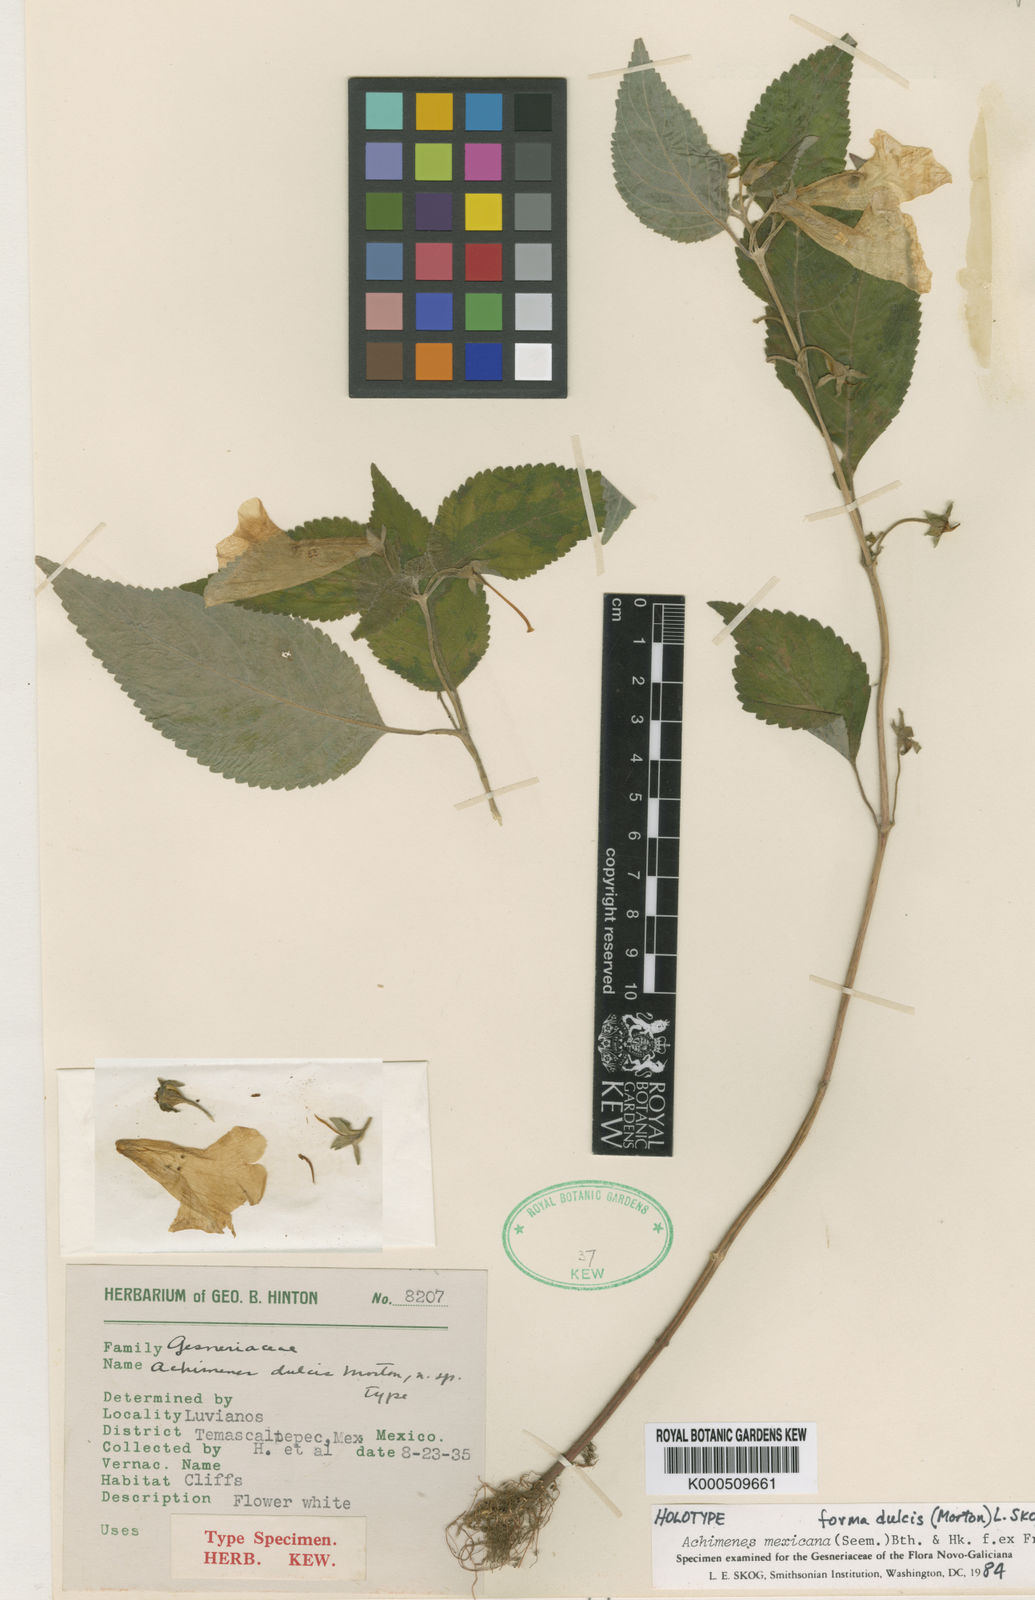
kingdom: Plantae
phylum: Tracheophyta
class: Magnoliopsida
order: Lamiales
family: Gesneriaceae
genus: Achimenes
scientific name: Achimenes dulcis
